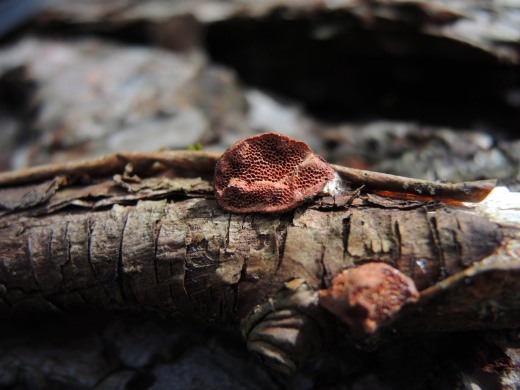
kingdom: Fungi
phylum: Basidiomycota
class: Agaricomycetes
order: Polyporales
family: Phanerochaetaceae
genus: Hapalopilus
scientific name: Hapalopilus rutilans
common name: rødlig okkerporesvamp
